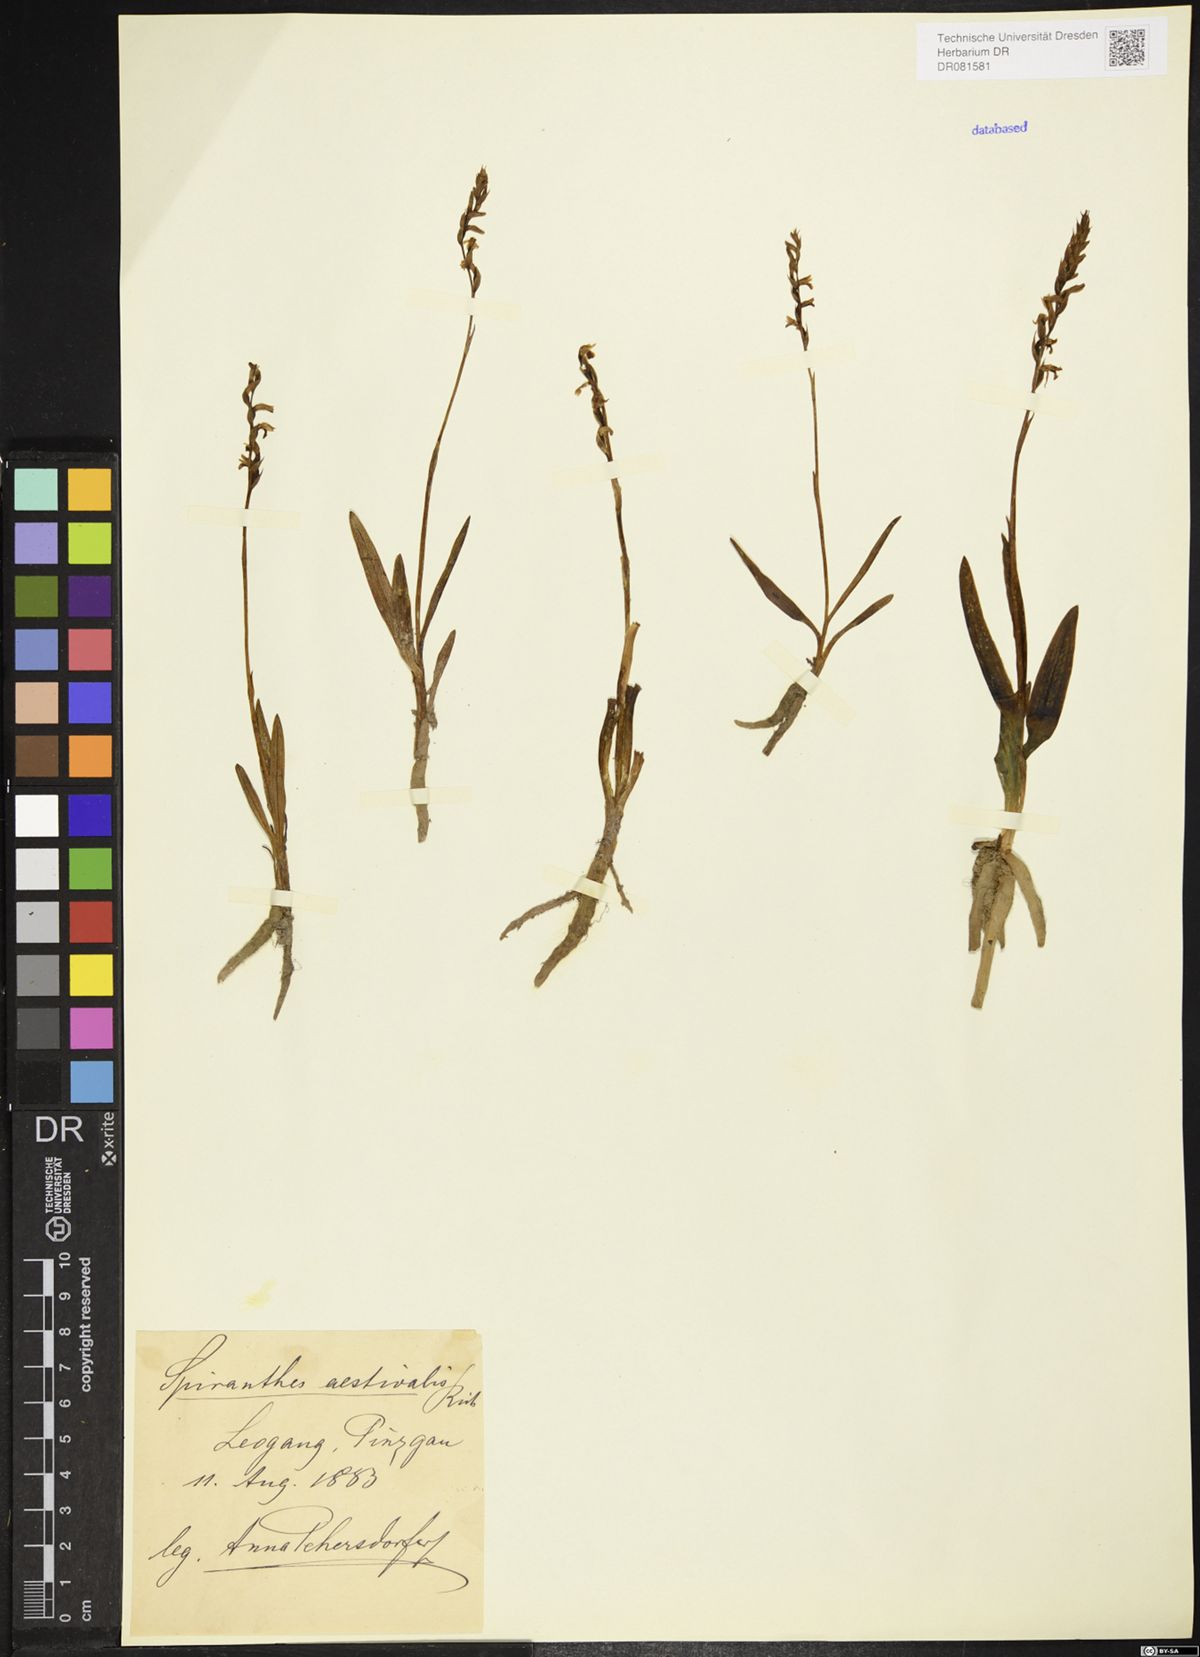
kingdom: Plantae
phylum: Tracheophyta
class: Liliopsida
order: Asparagales
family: Orchidaceae
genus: Spiranthes
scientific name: Spiranthes aestivalis
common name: Summer lady's-tresses
